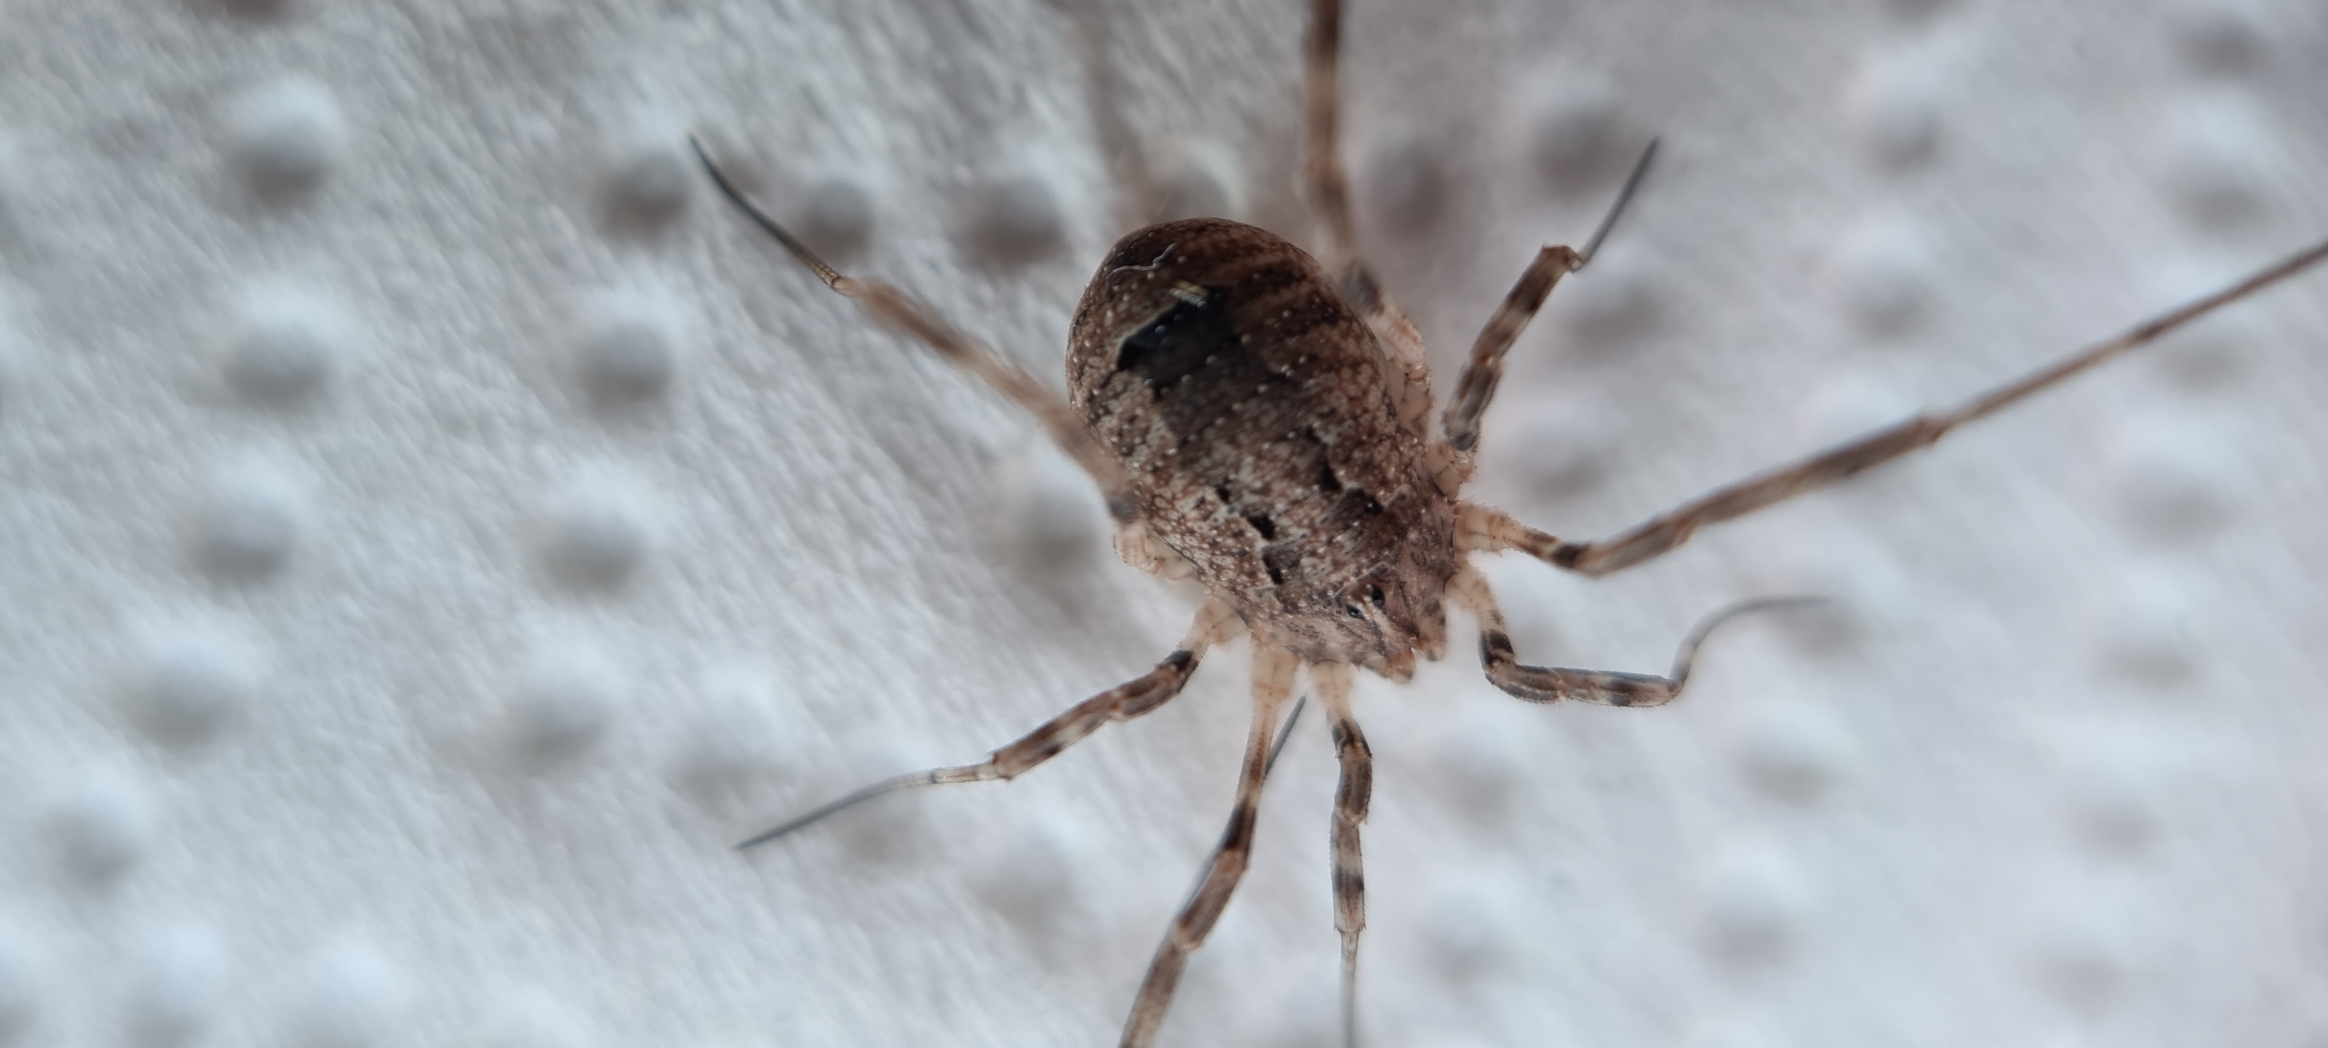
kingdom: Animalia
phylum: Arthropoda
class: Arachnida
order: Opiliones
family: Phalangiidae
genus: Odiellus
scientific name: Odiellus spinosus
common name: Kæmpemejer
